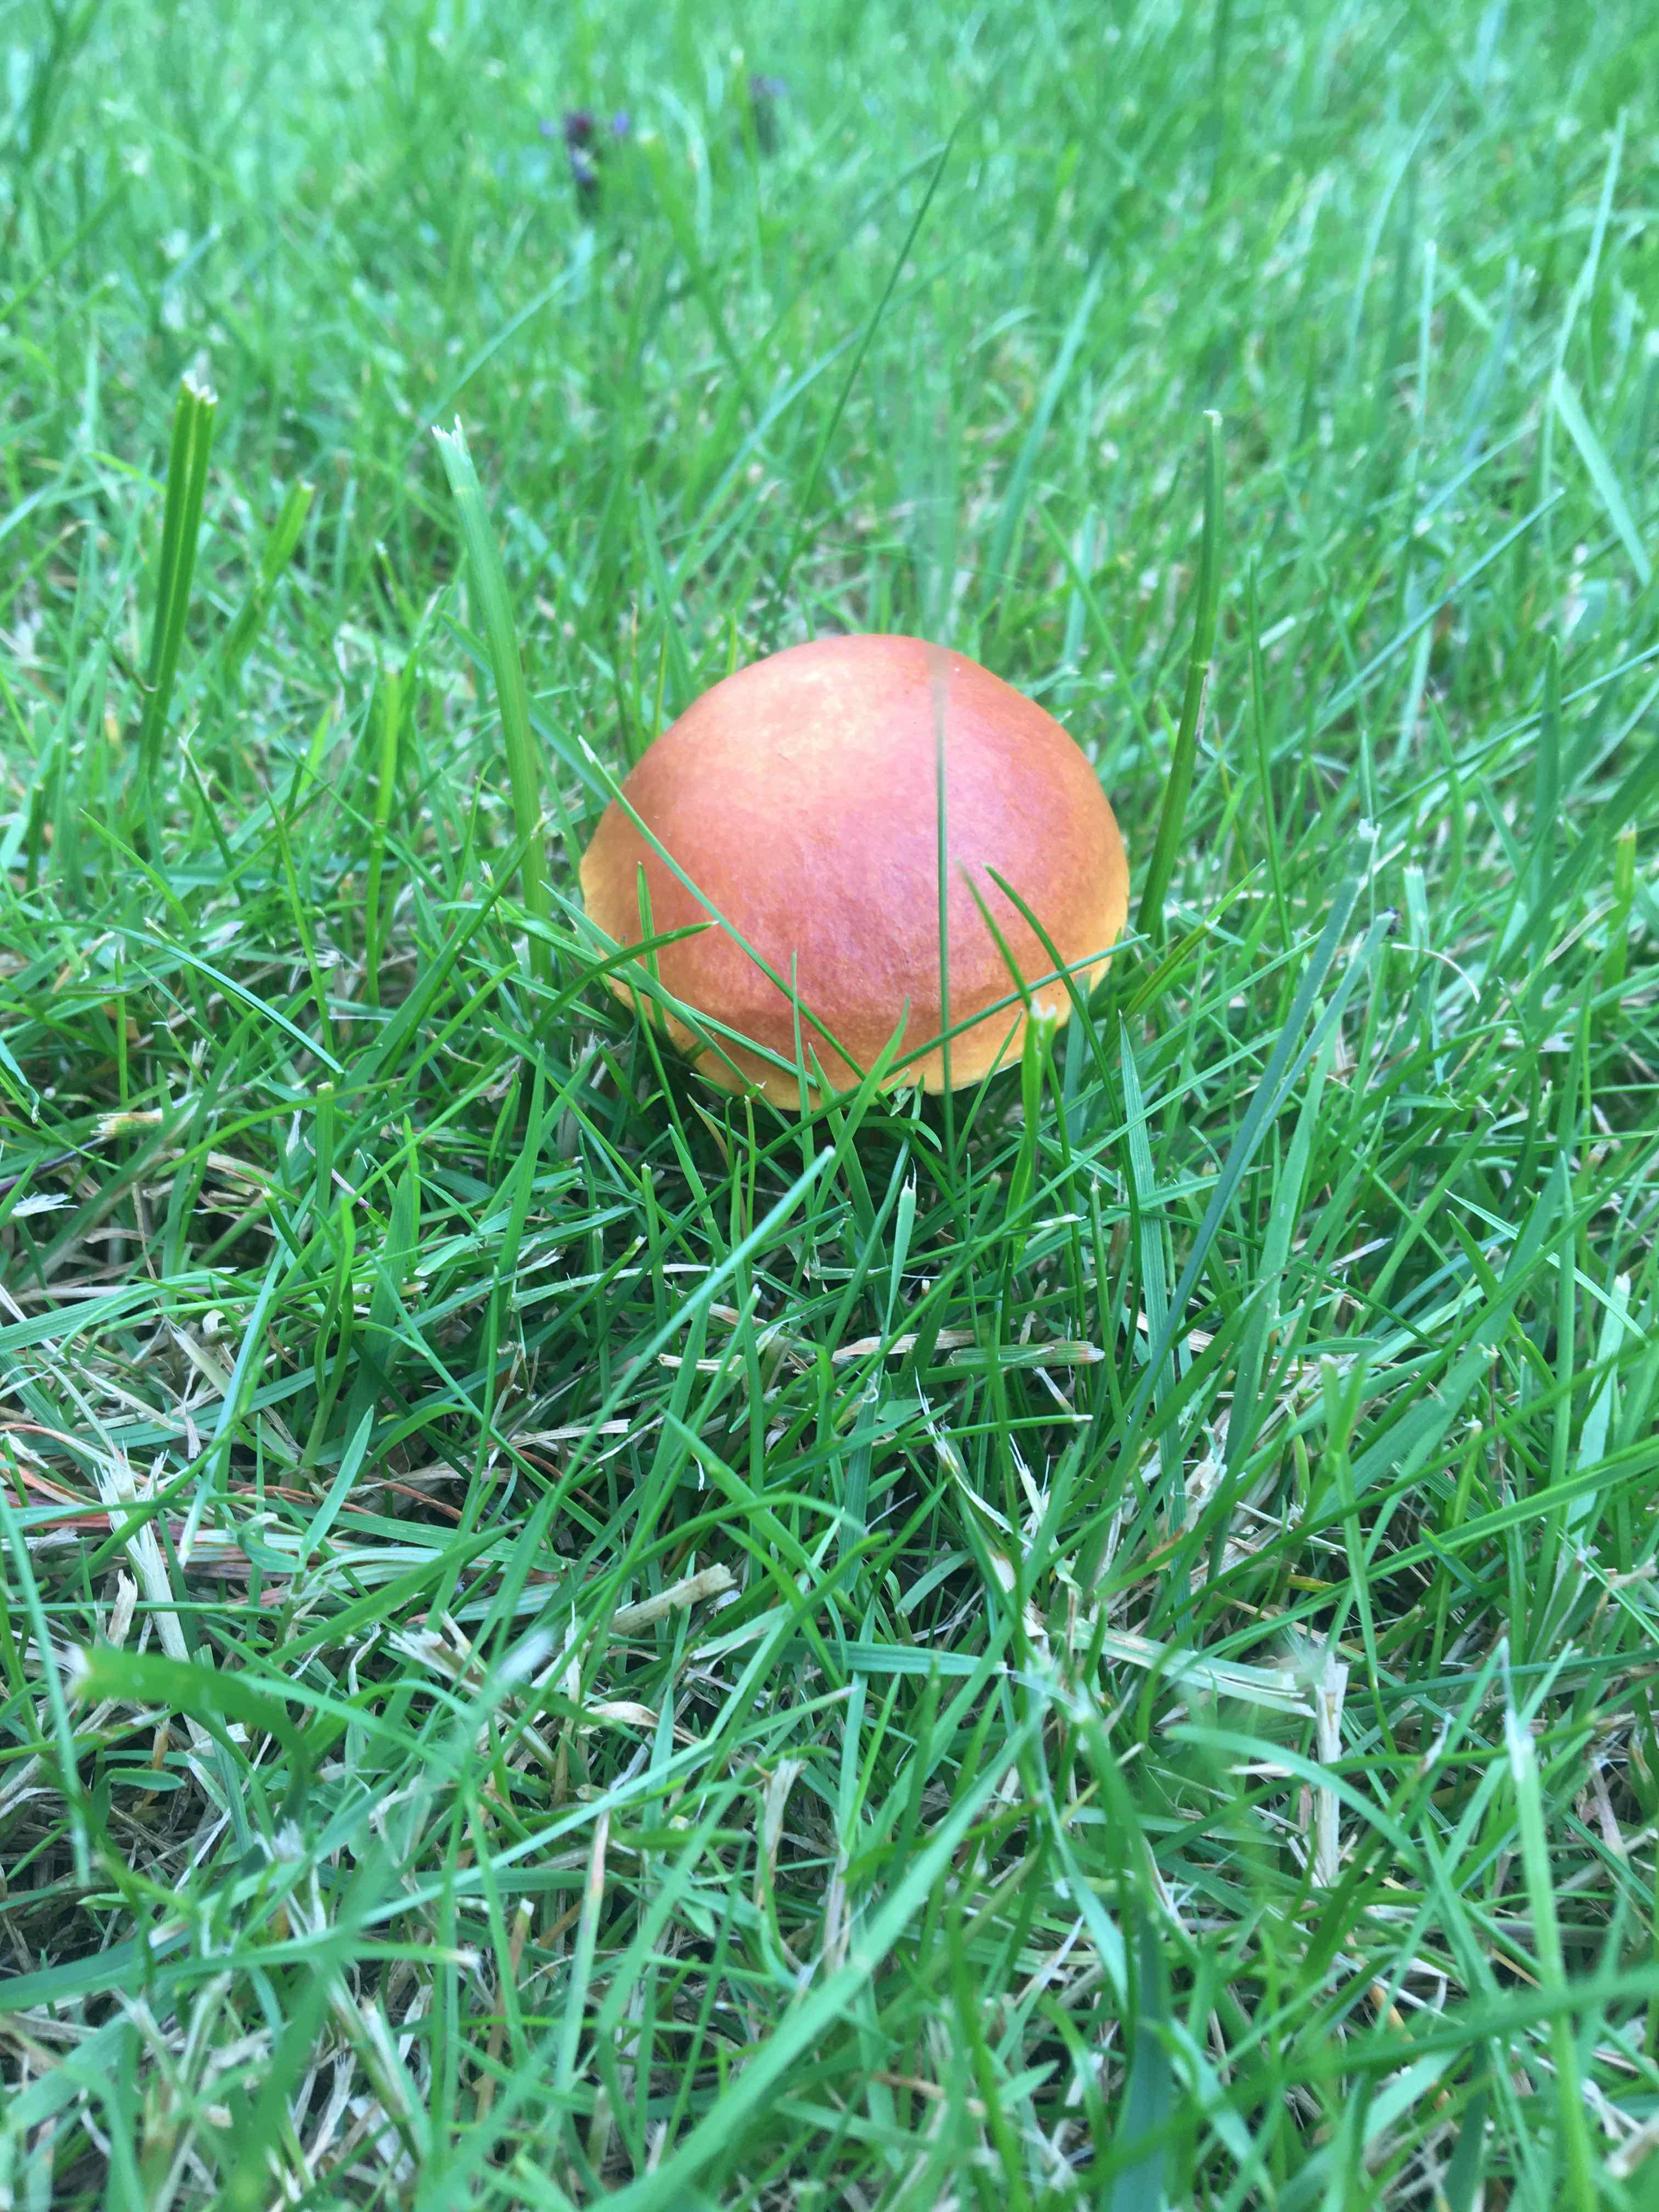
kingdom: Fungi
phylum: Basidiomycota
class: Agaricomycetes
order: Boletales
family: Suillaceae
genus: Suillus
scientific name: Suillus grevillei
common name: lærke-slimrørhat
